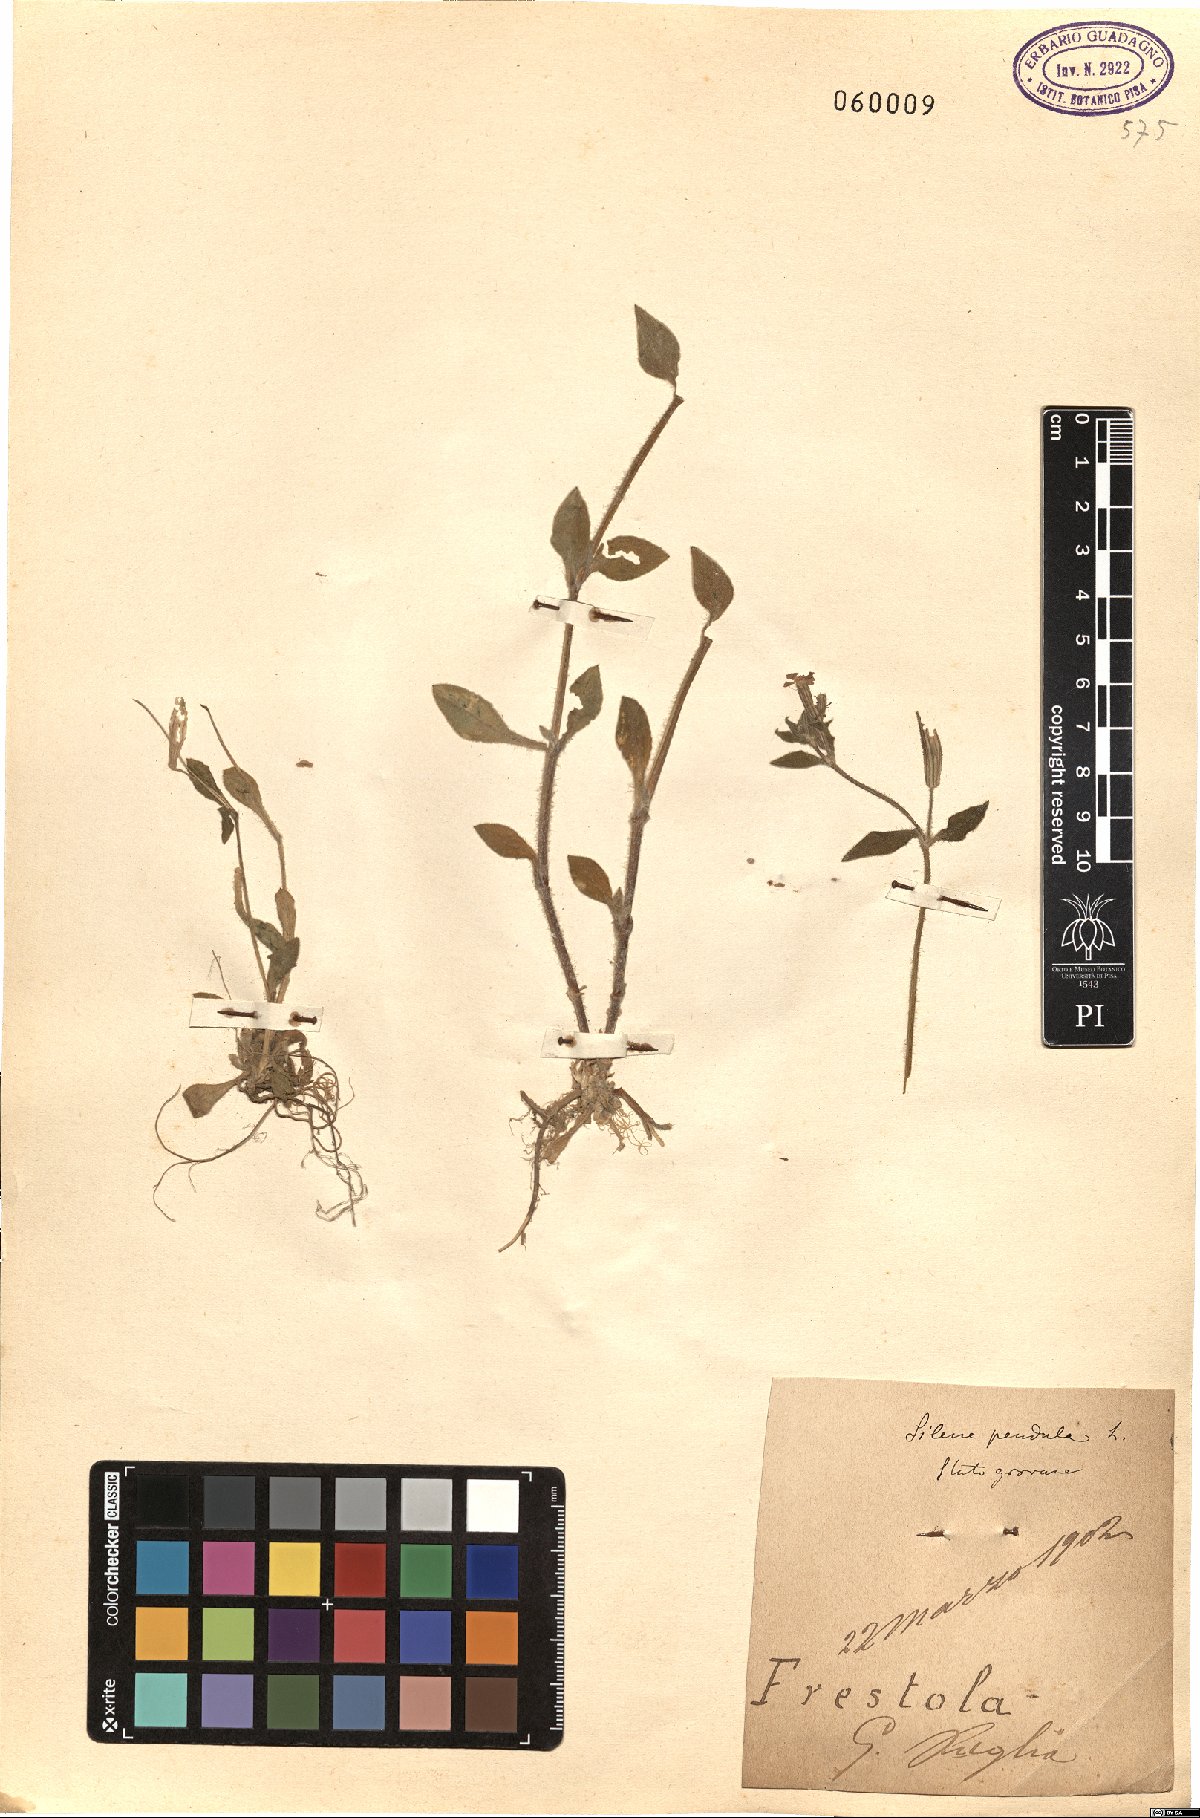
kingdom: Plantae
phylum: Tracheophyta
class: Magnoliopsida
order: Caryophyllales
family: Caryophyllaceae
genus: Silene
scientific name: Silene pendula
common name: Nodding catchfly
